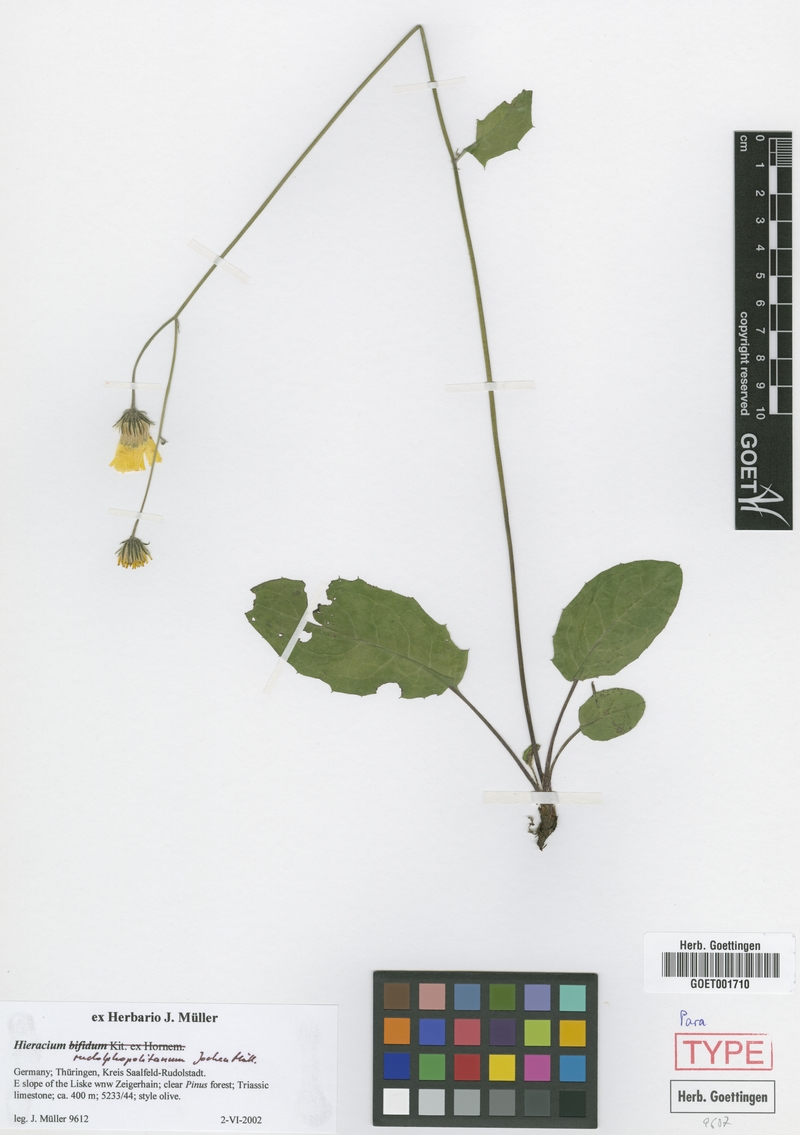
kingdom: Plantae
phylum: Tracheophyta
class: Magnoliopsida
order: Asterales
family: Asteraceae
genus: Hieracium
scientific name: Hieracium hypochoeroides
